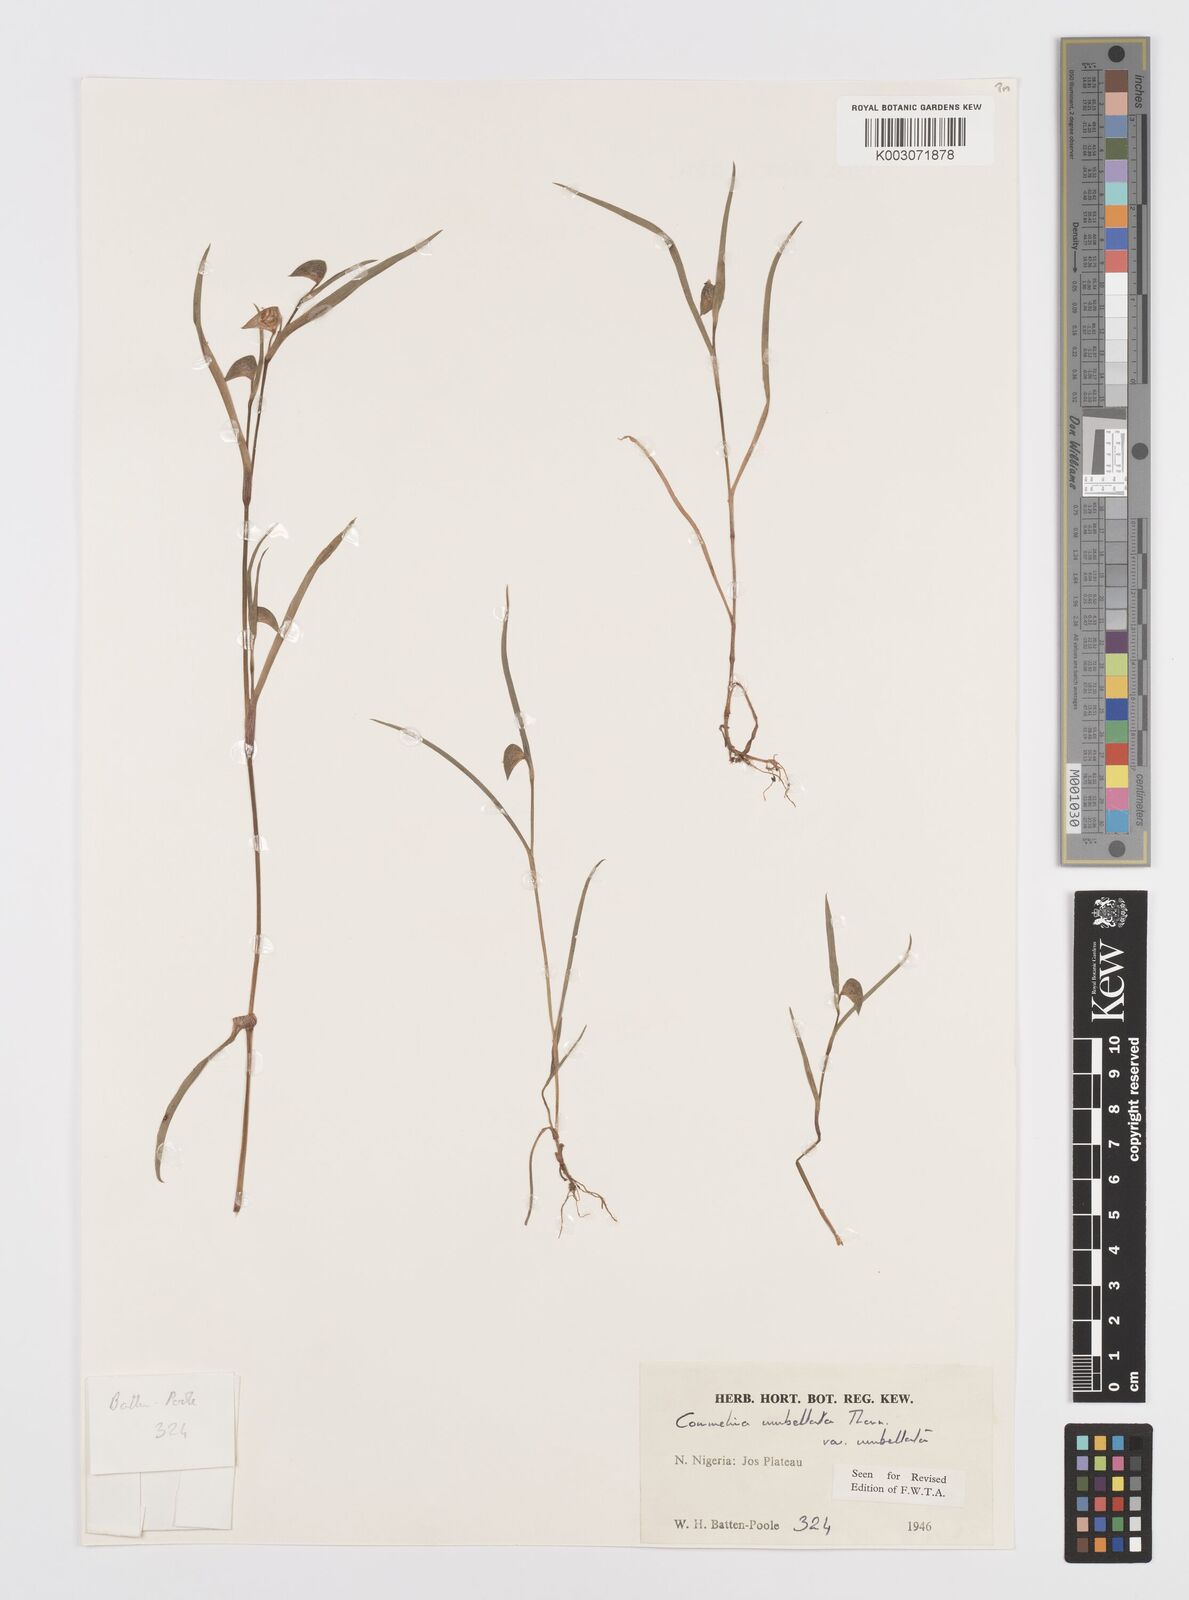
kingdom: Plantae
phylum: Tracheophyta
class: Liliopsida
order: Commelinales
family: Commelinaceae
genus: Commelina
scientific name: Commelina
